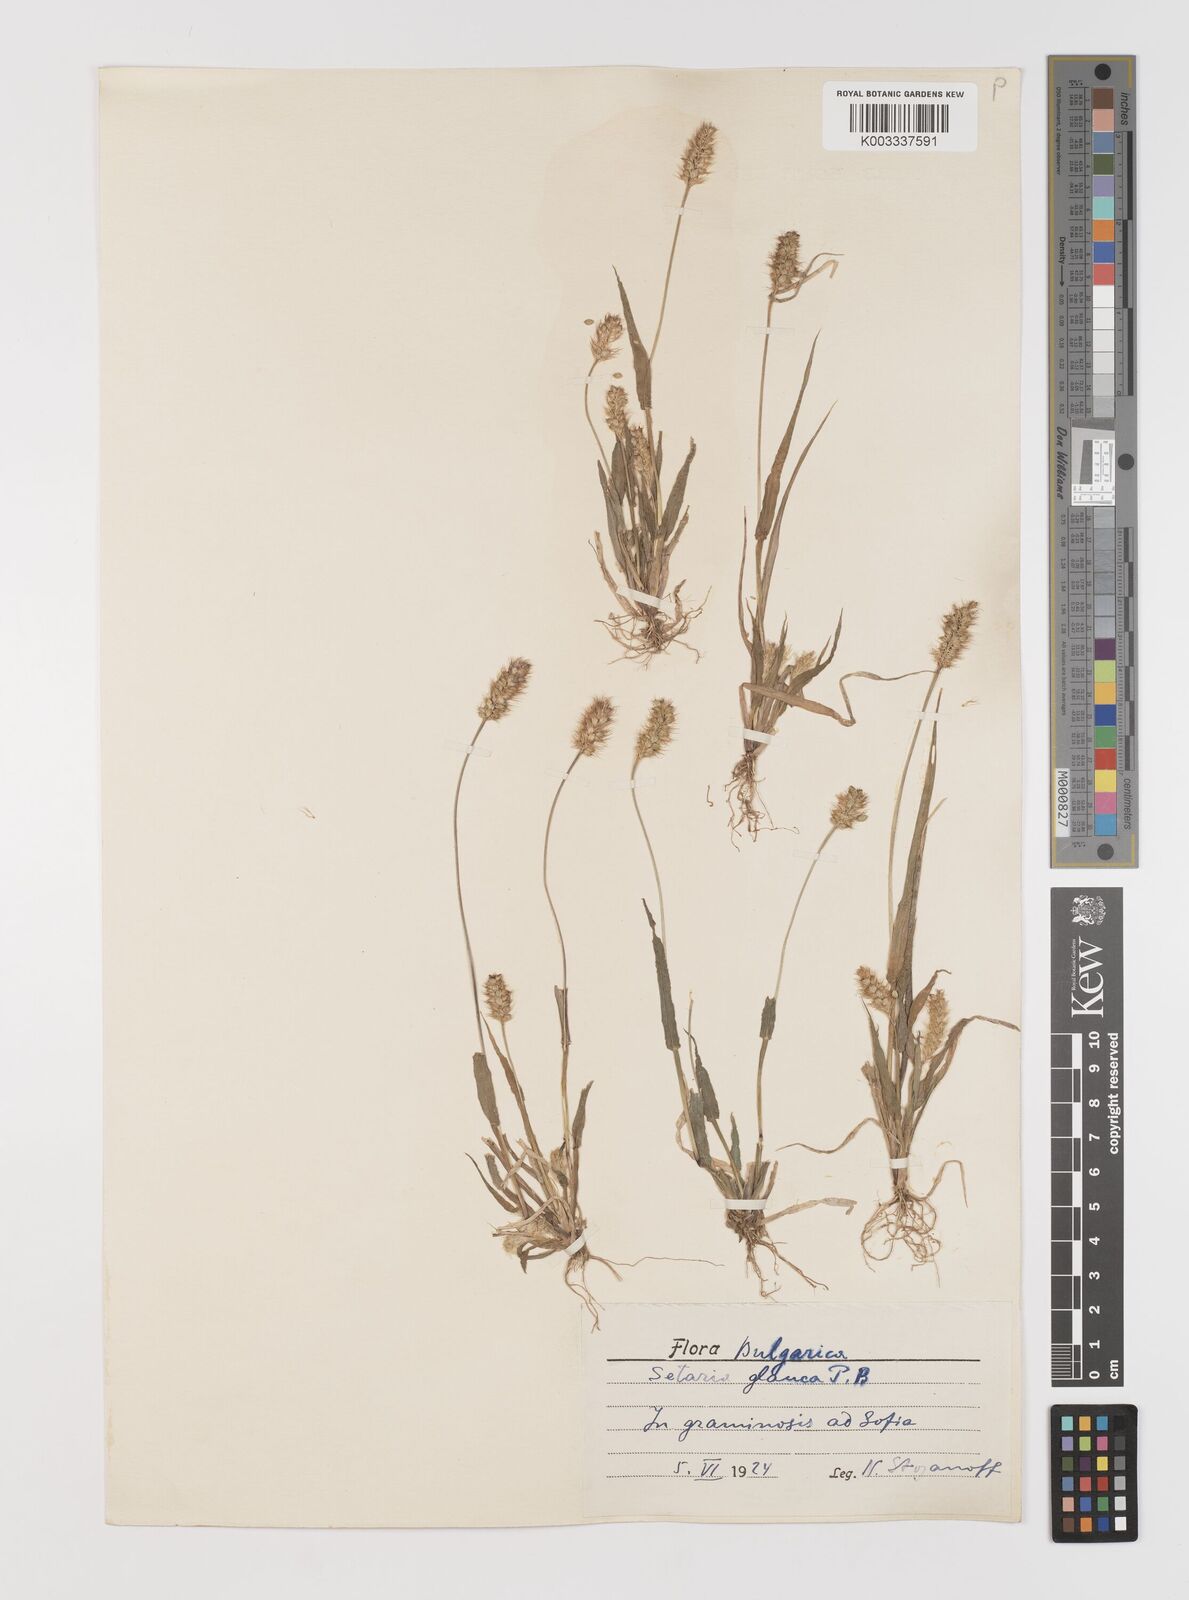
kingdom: Plantae
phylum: Tracheophyta
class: Liliopsida
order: Poales
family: Poaceae
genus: Setaria
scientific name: Setaria pumila
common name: Yellow bristle-grass
